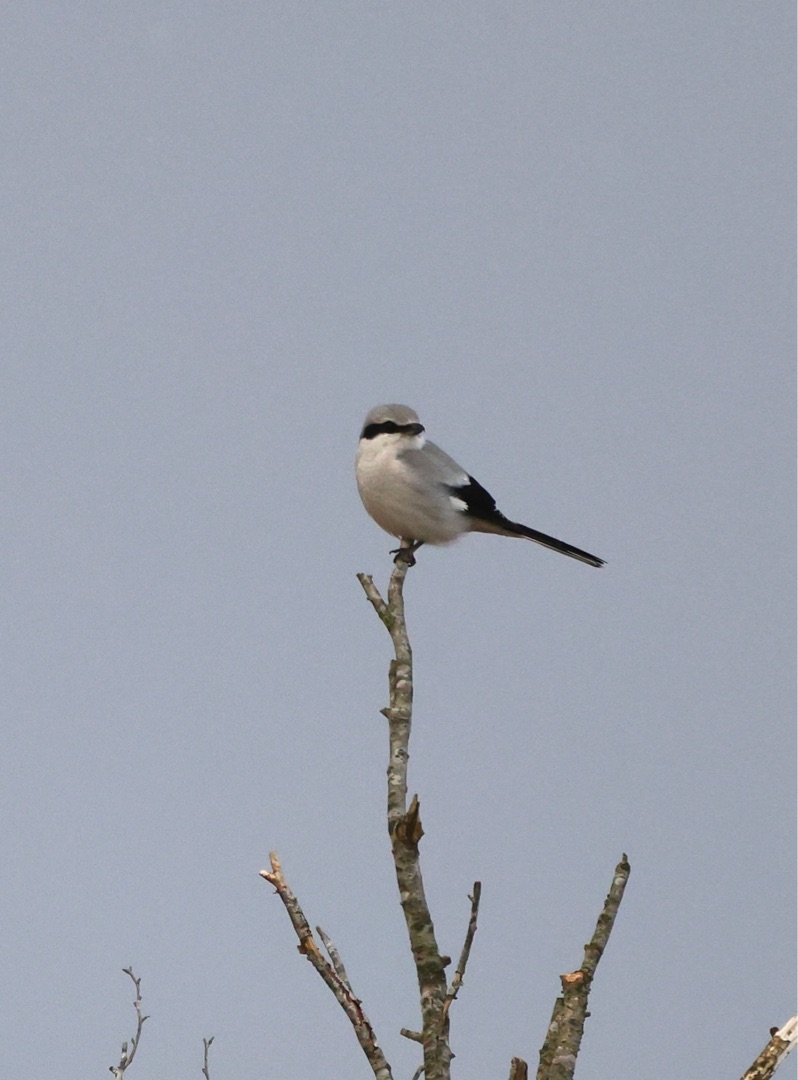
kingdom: Animalia
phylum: Chordata
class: Aves
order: Passeriformes
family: Laniidae
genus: Lanius
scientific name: Lanius excubitor
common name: Stor tornskade
